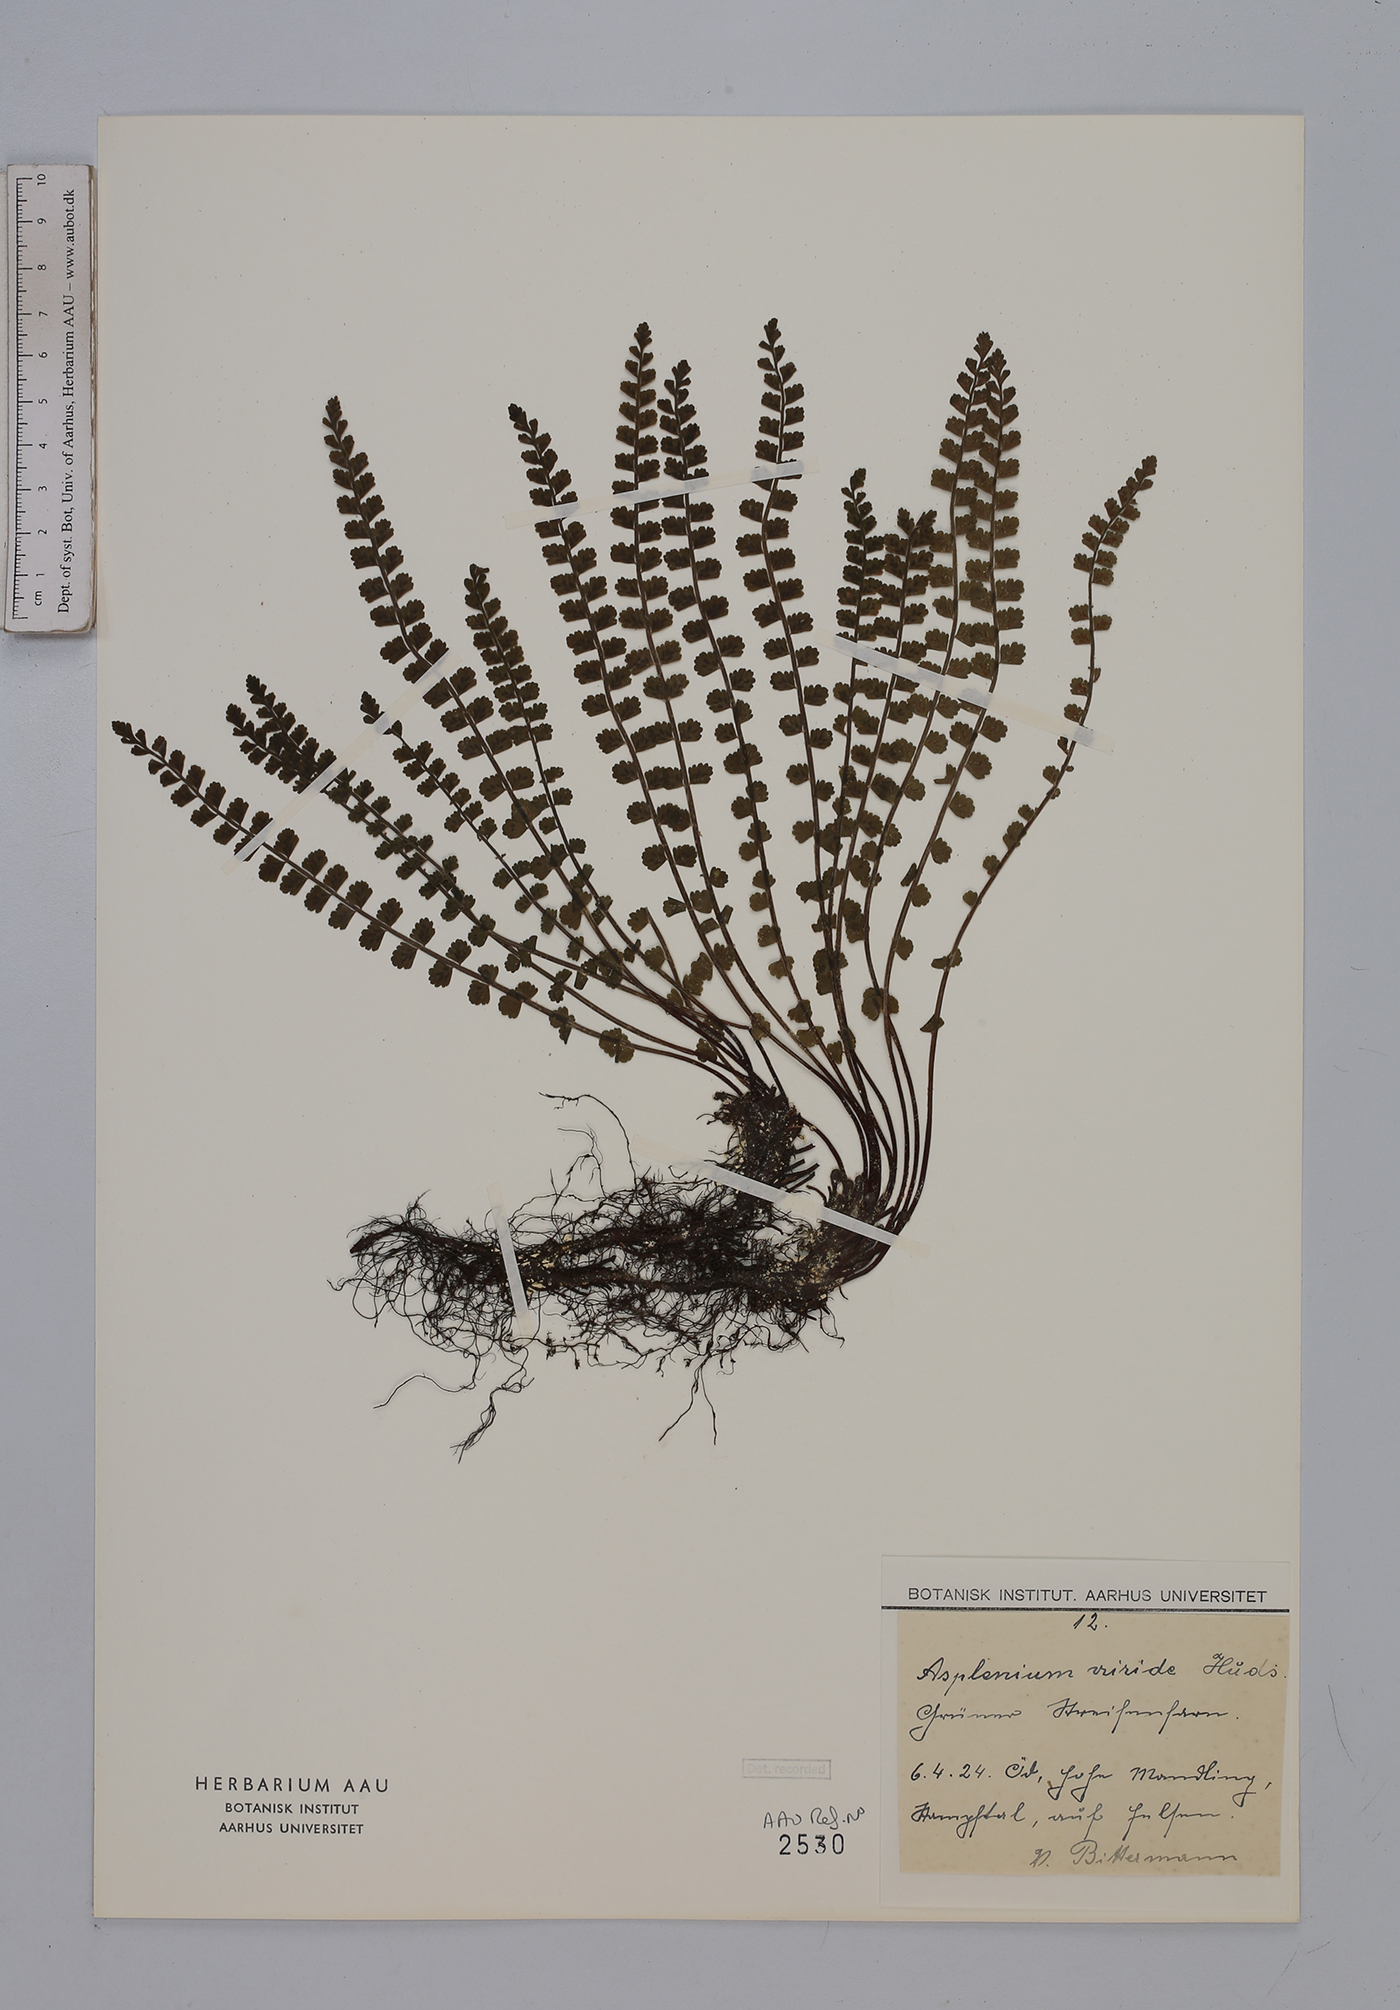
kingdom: Plantae
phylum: Tracheophyta
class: Polypodiopsida
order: Polypodiales
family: Aspleniaceae
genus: Asplenium
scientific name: Asplenium viride
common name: Green spleenwort
